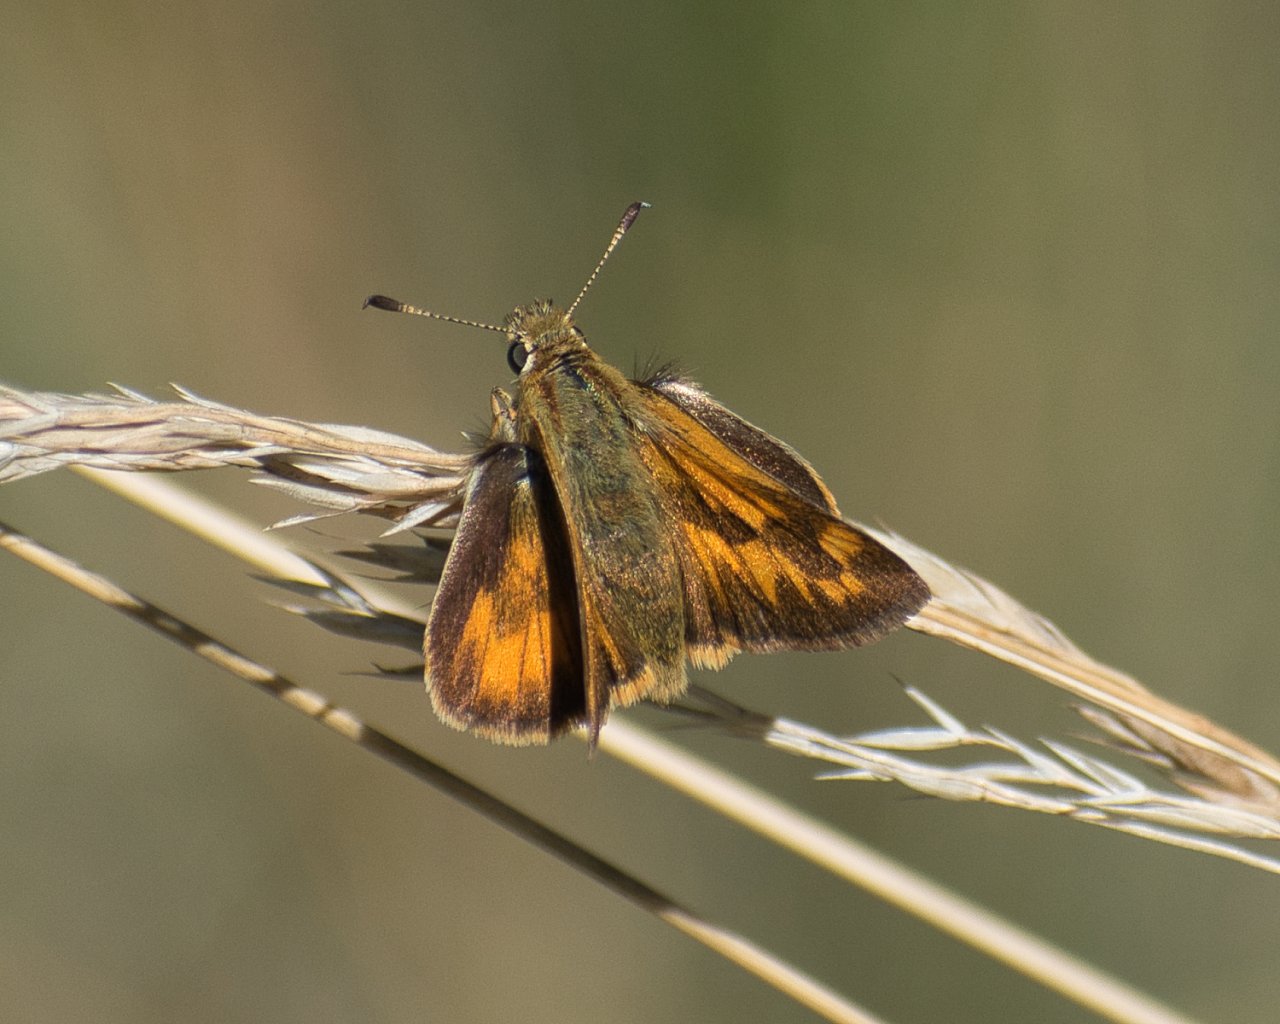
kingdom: Animalia
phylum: Arthropoda
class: Insecta
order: Lepidoptera
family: Hesperiidae
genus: Ochlodes
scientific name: Ochlodes sylvanoides
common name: Woodland Skipper
